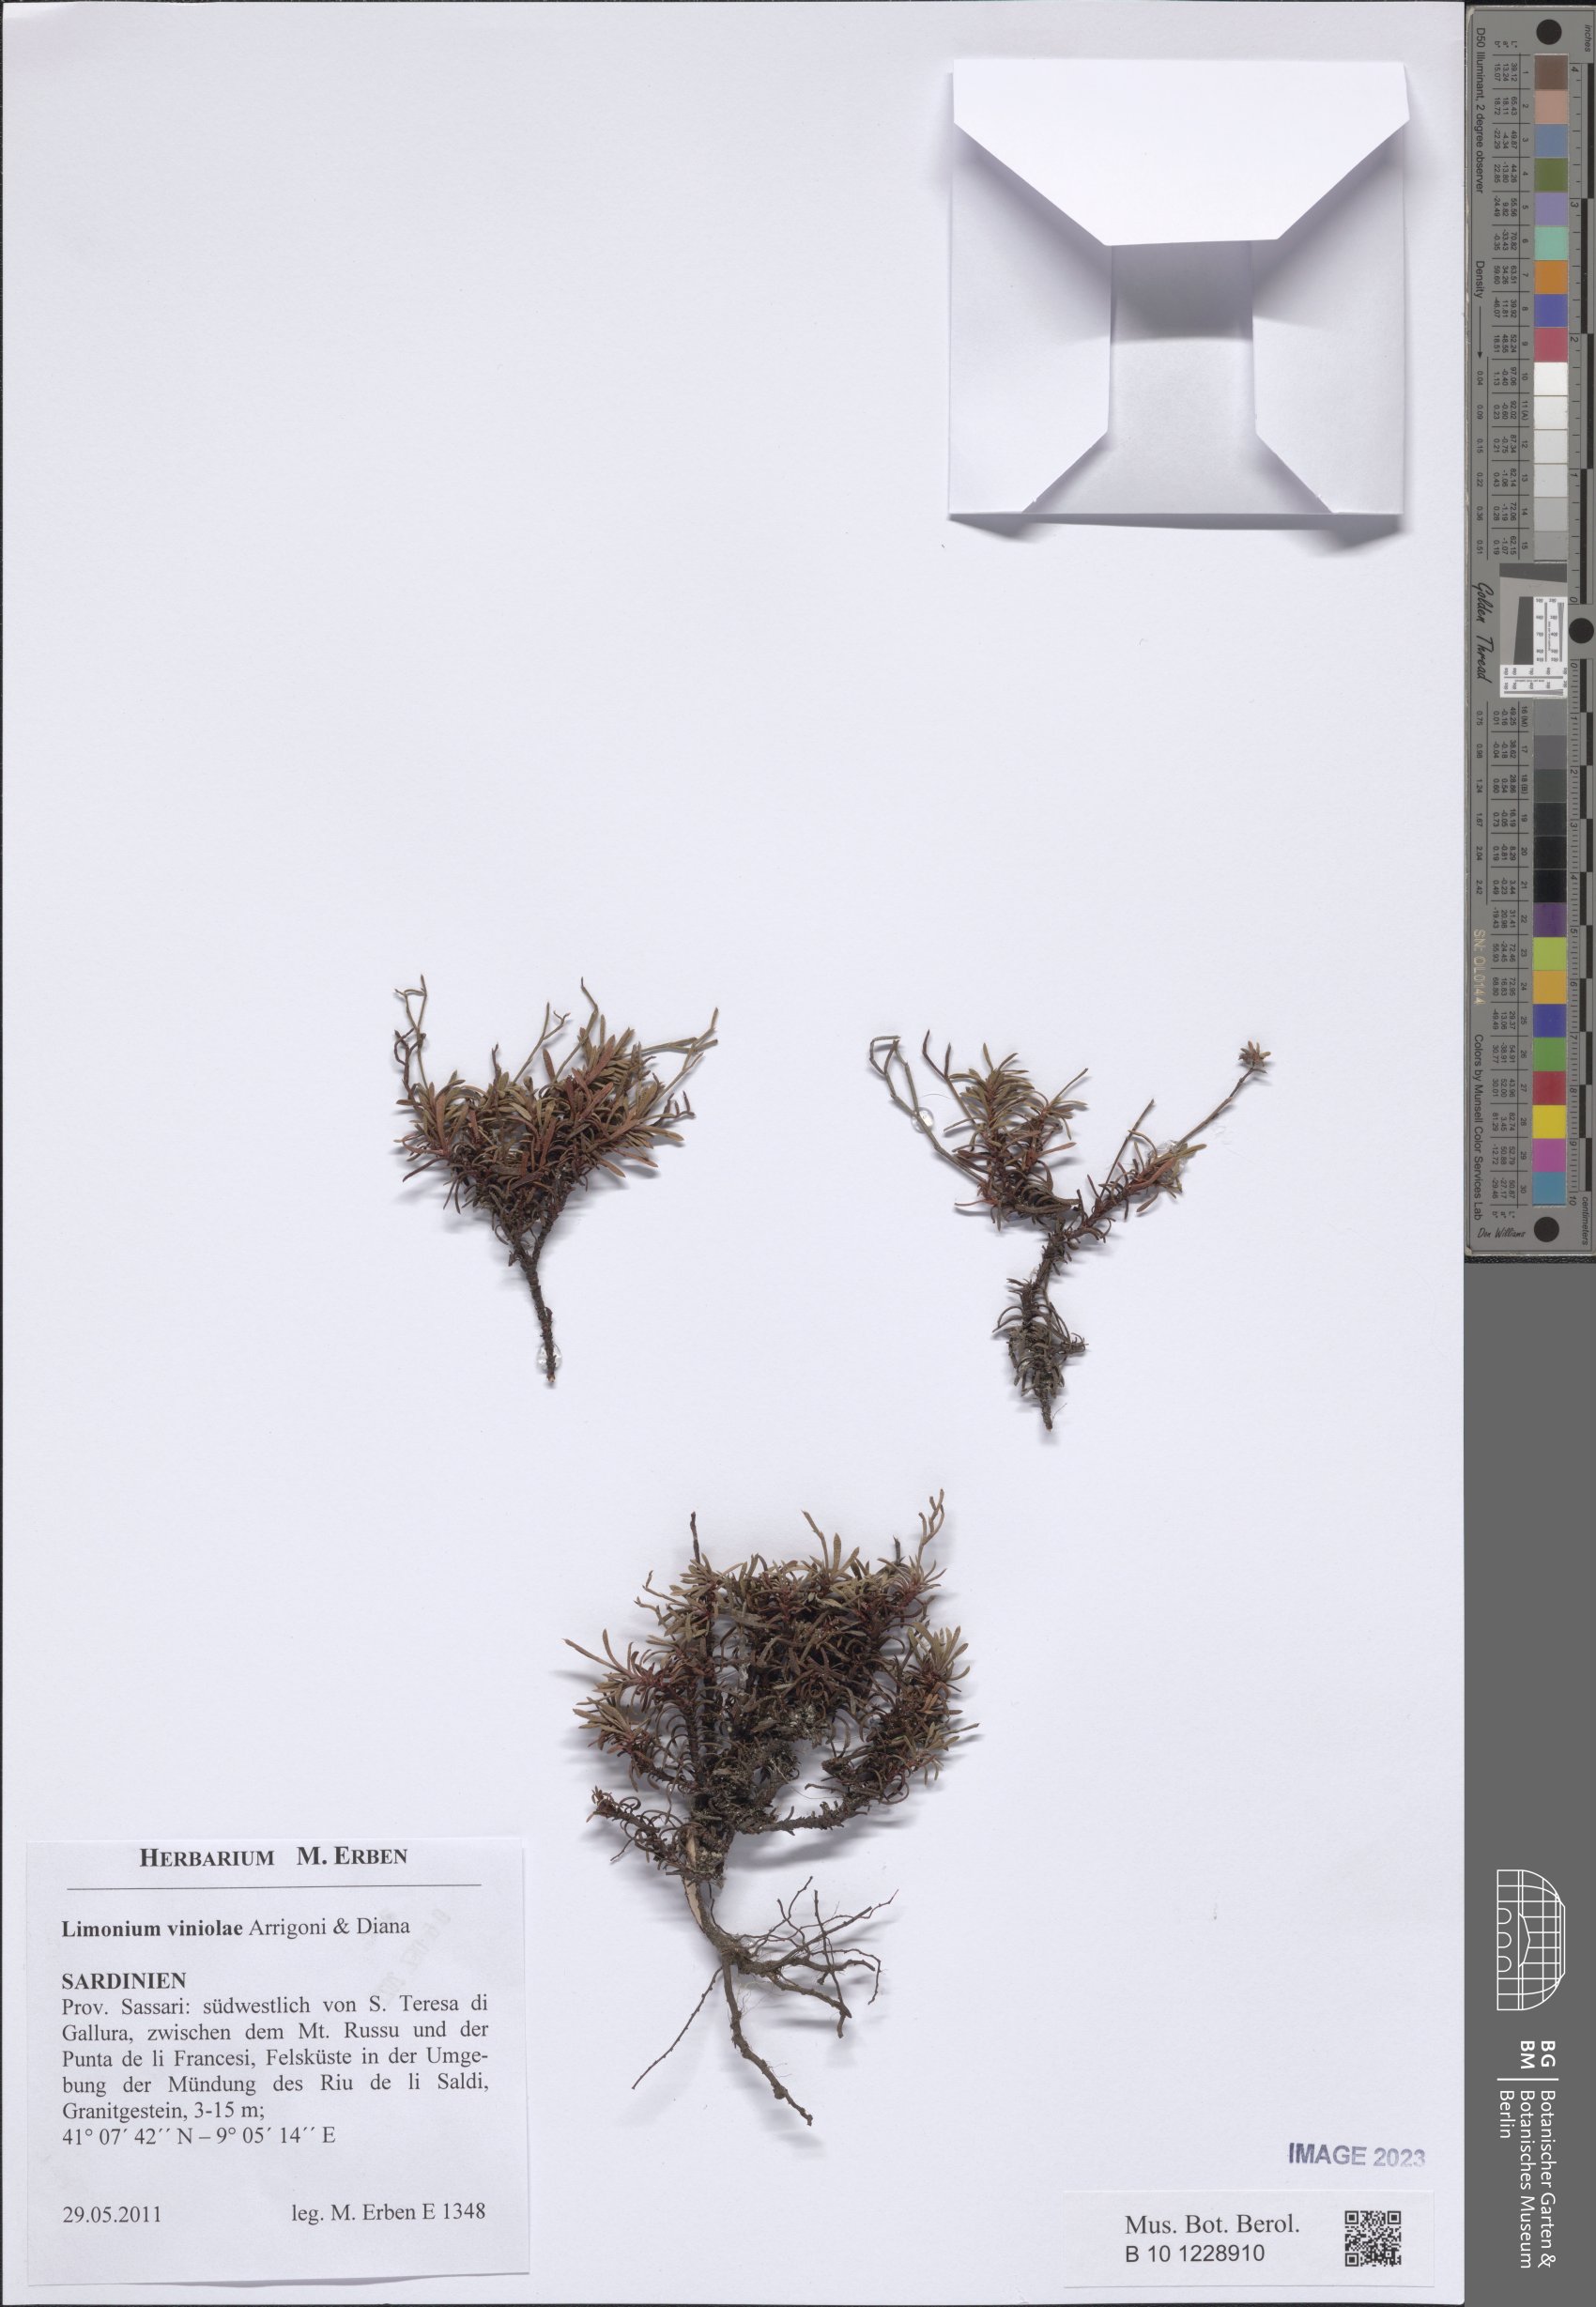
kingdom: Plantae
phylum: Tracheophyta
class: Magnoliopsida
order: Caryophyllales
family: Plumbaginaceae
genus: Limonium
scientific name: Limonium viniolae
